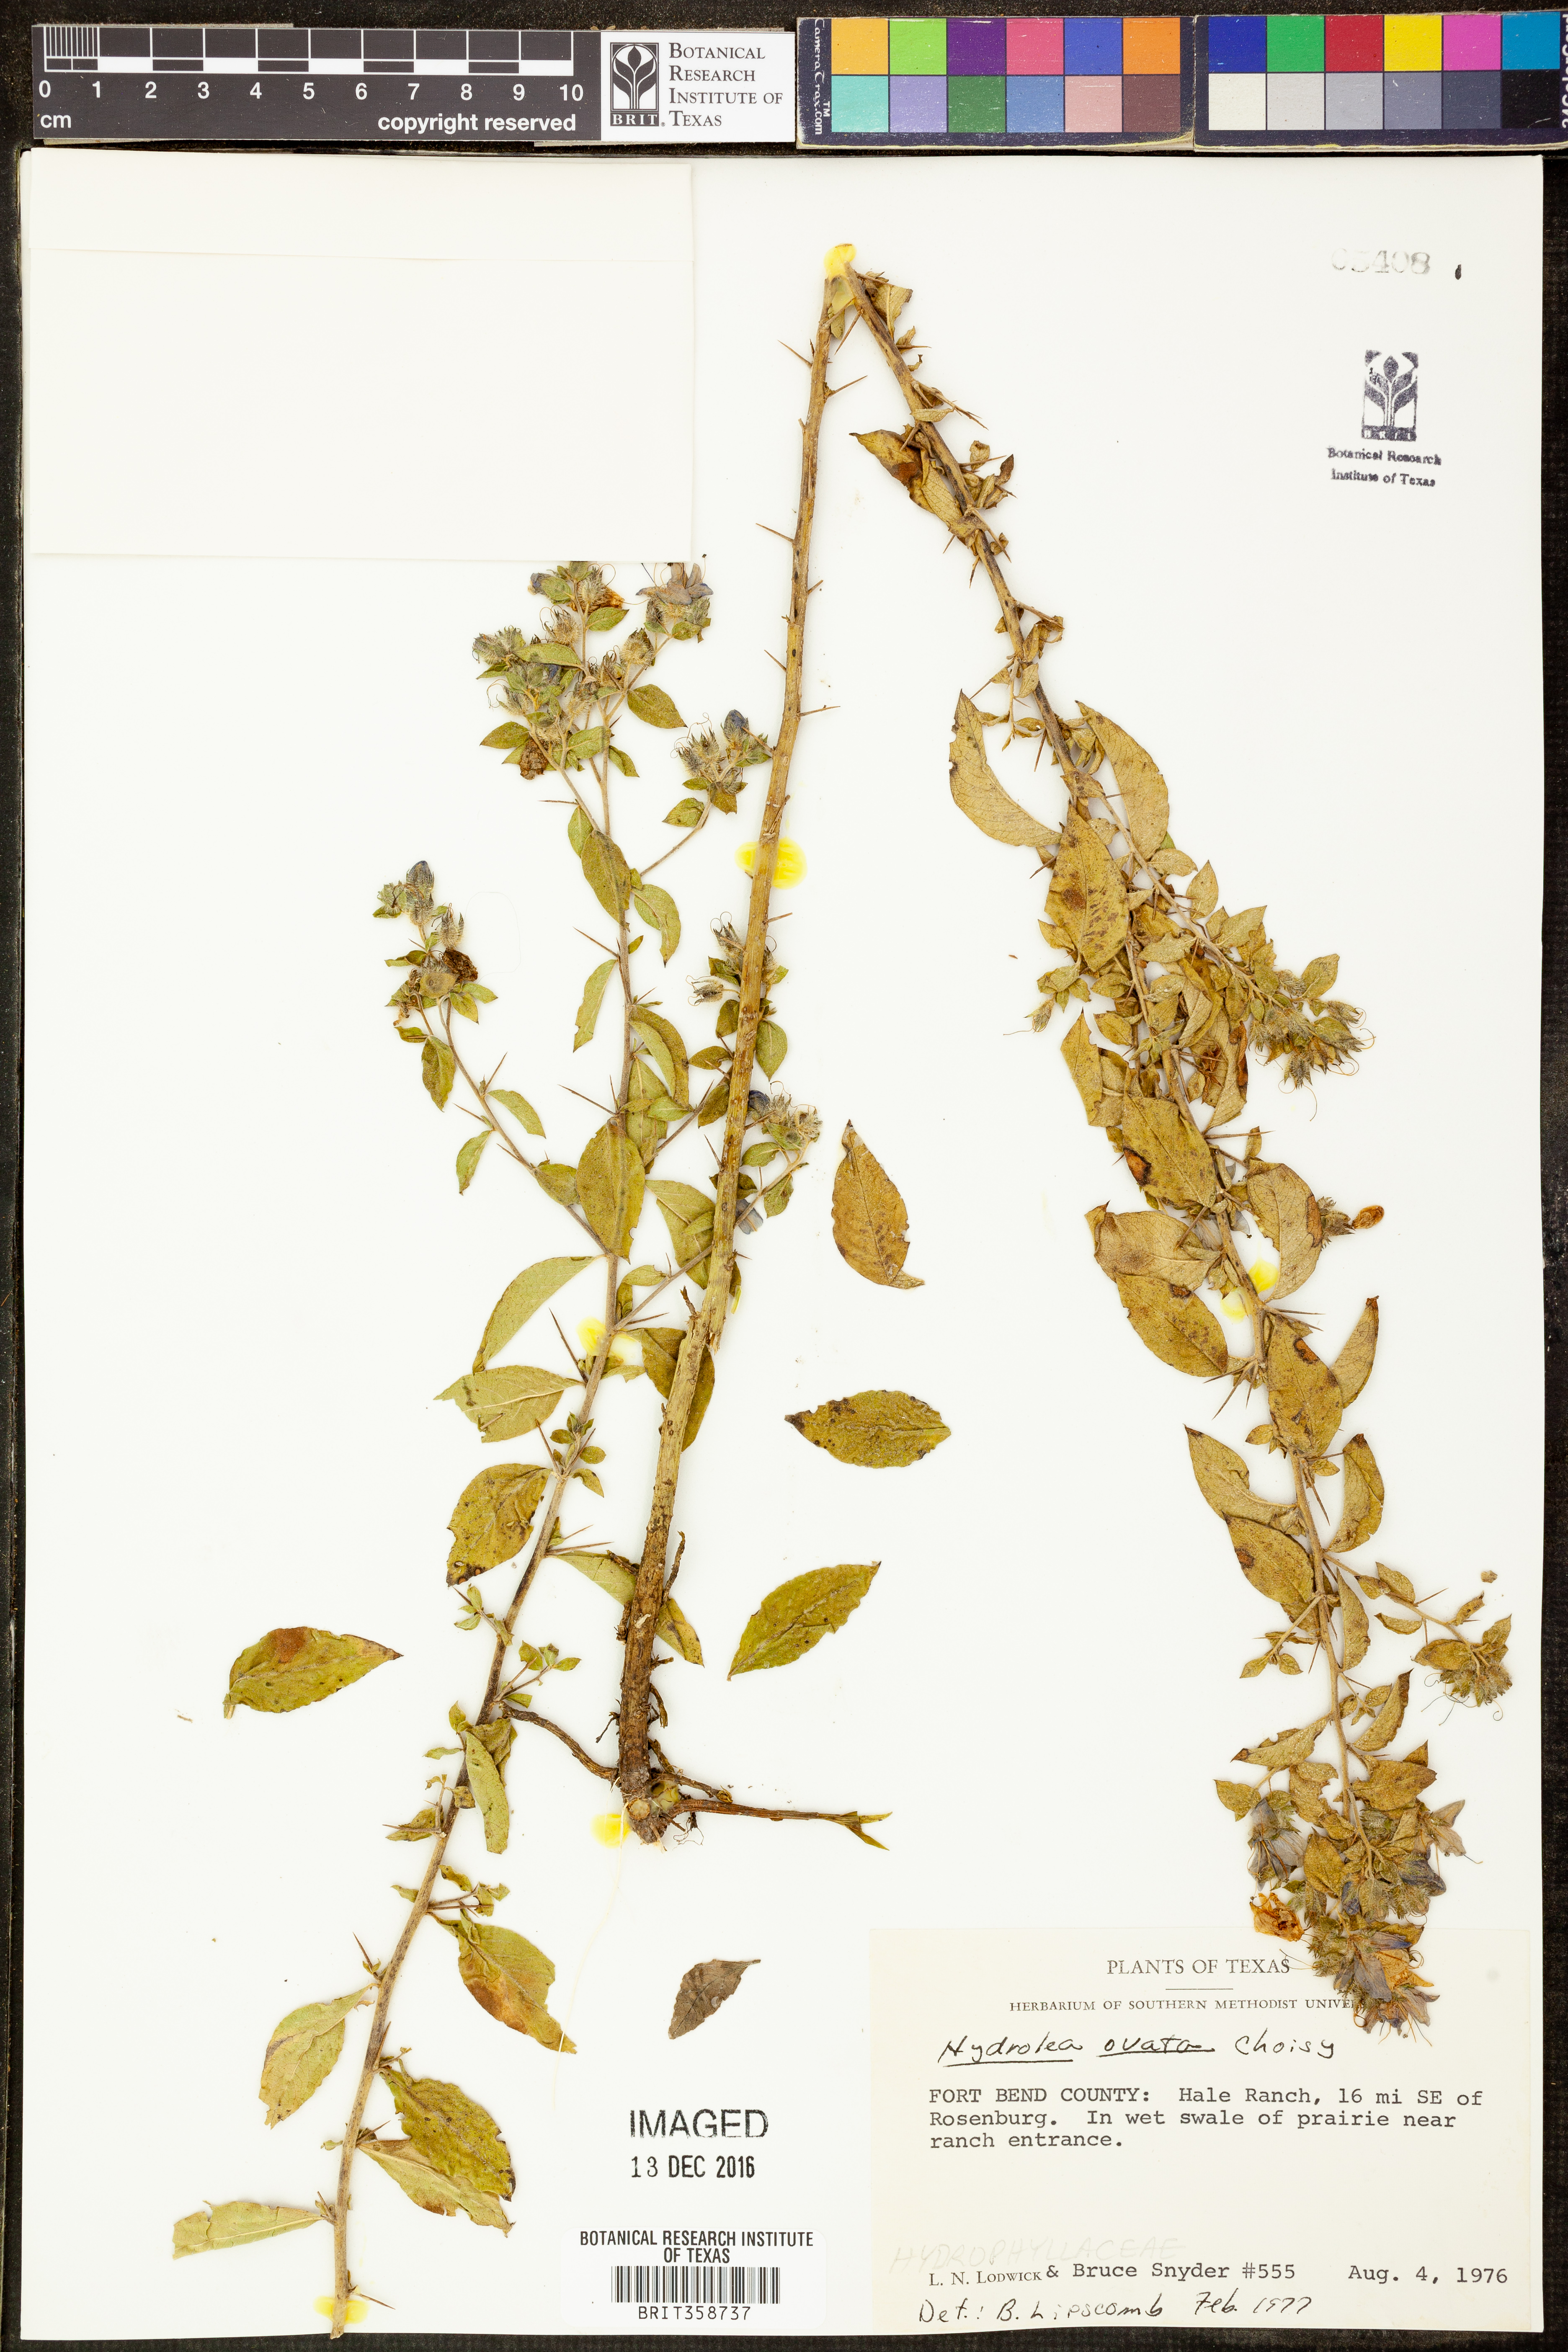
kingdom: Plantae
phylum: Tracheophyta
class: Magnoliopsida
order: Solanales
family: Hydroleaceae
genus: Hydrolea
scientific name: Hydrolea ovata
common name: Ovate false fiddleleaf
